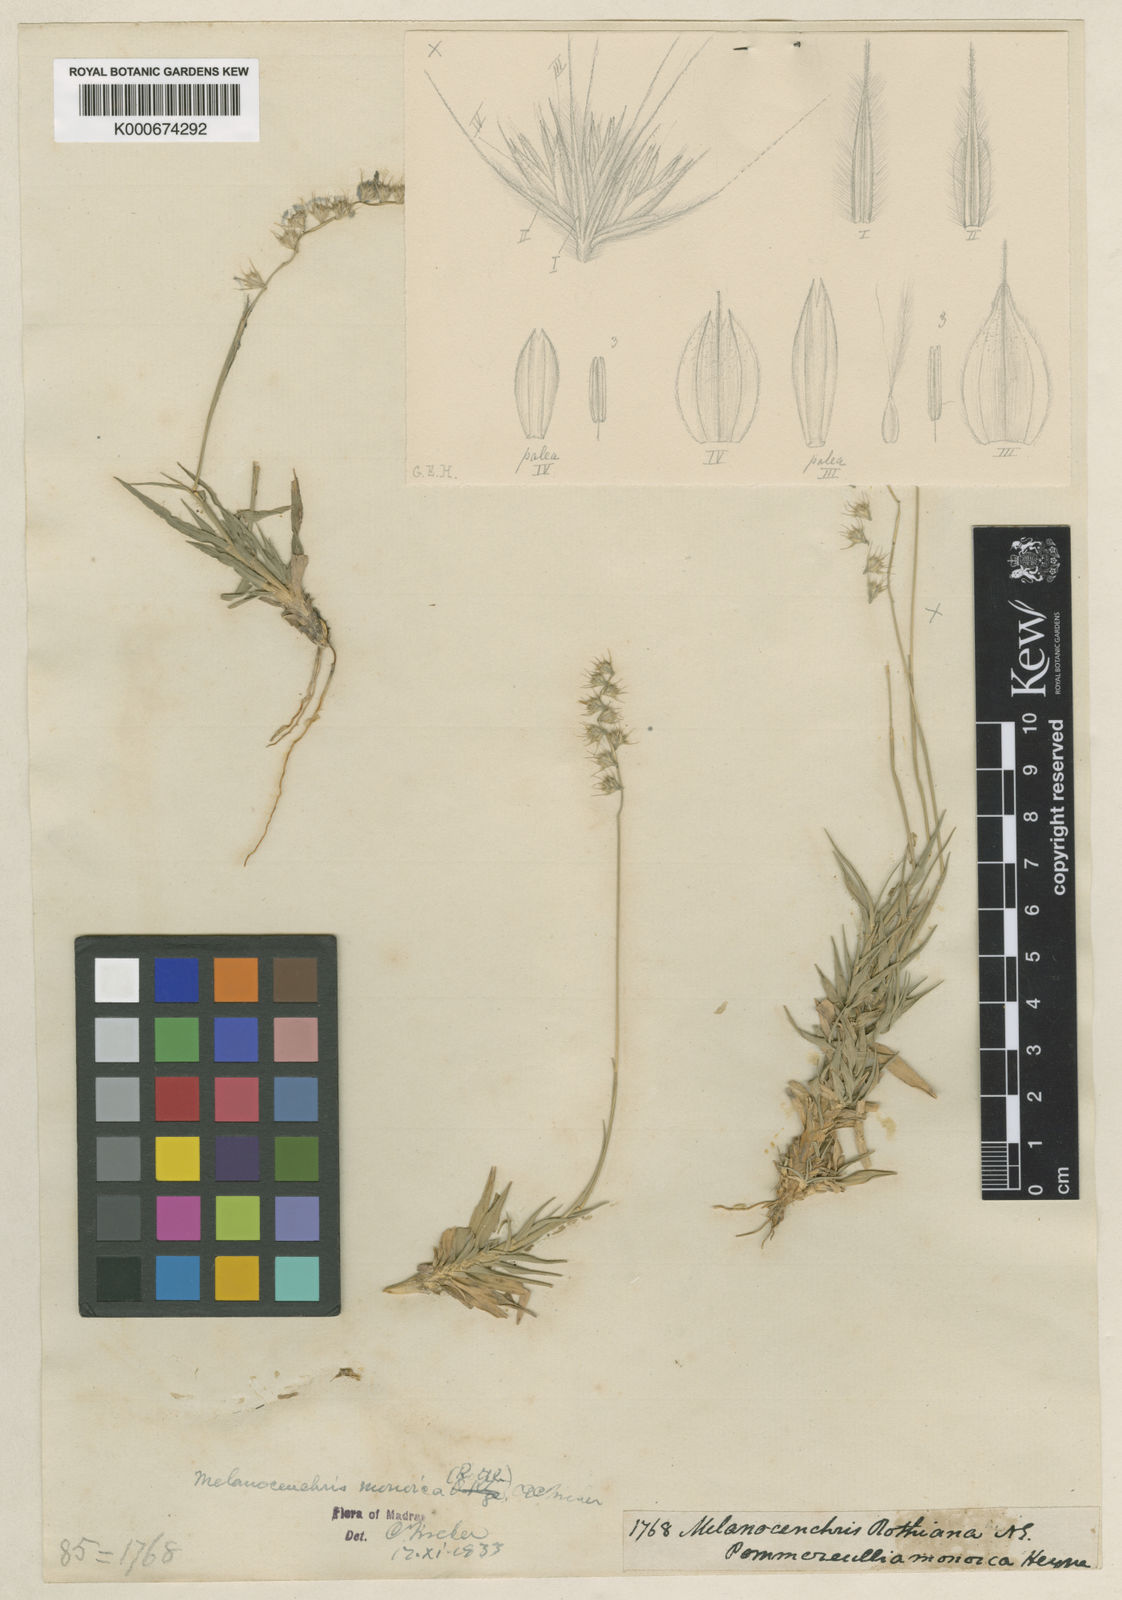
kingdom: Plantae
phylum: Tracheophyta
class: Liliopsida
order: Poales
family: Poaceae
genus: Melanocenchris
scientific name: Melanocenchris rothiana
